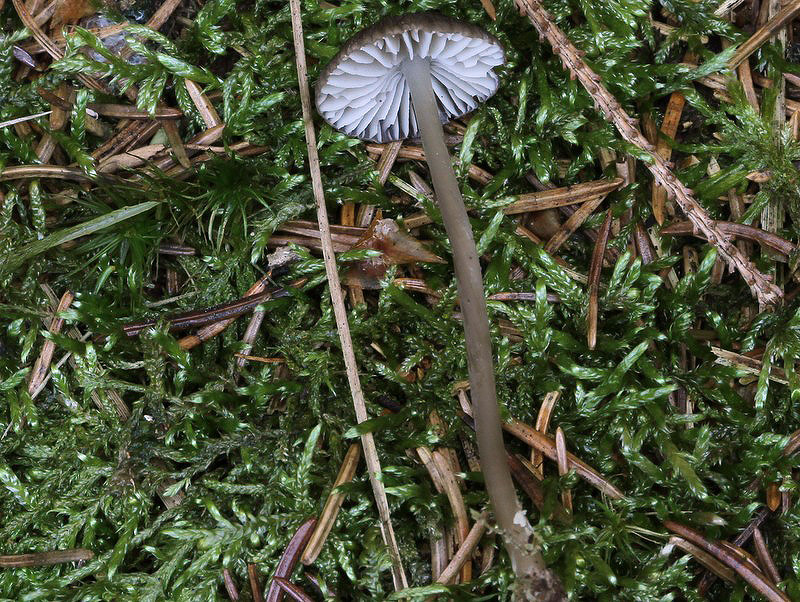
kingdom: Fungi
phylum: Basidiomycota
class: Agaricomycetes
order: Agaricales
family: Mycenaceae
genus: Mycena
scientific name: Mycena megaspora
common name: brusk-huesvamp
